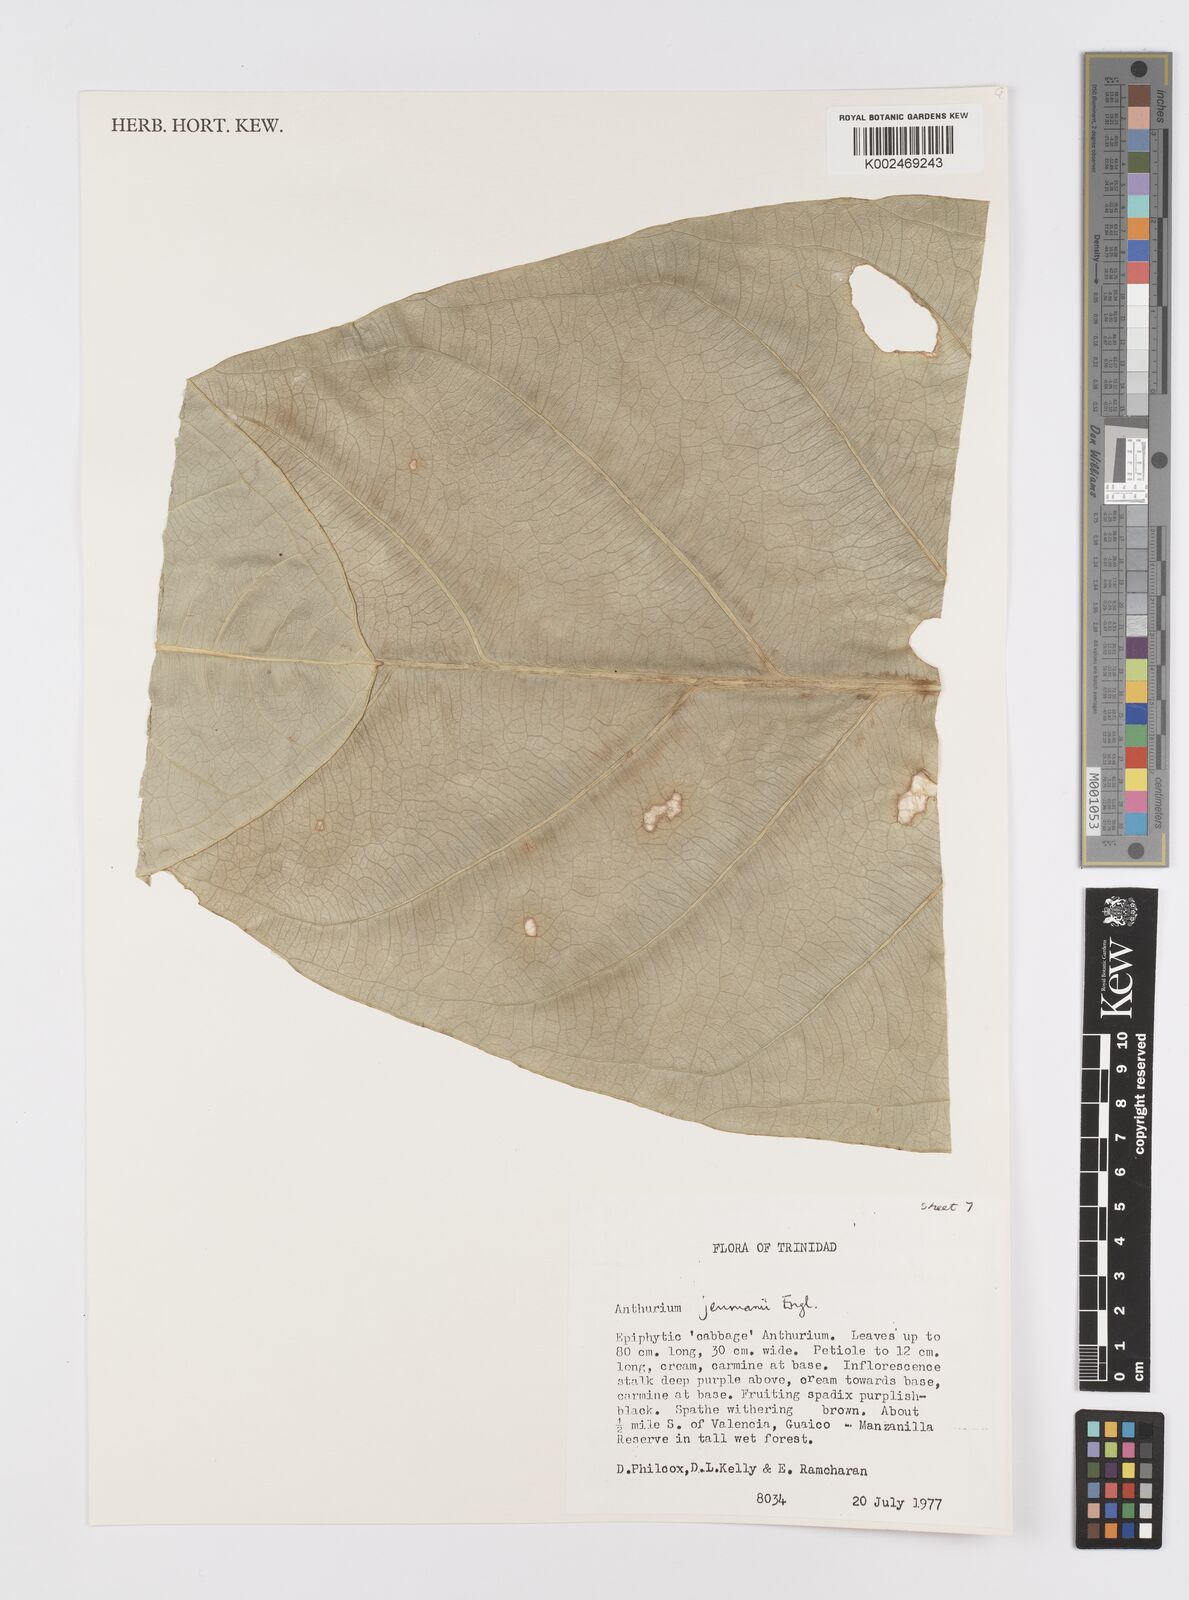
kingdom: Plantae
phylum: Tracheophyta
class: Liliopsida
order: Alismatales
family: Araceae
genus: Anthurium
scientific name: Anthurium jenmanii
